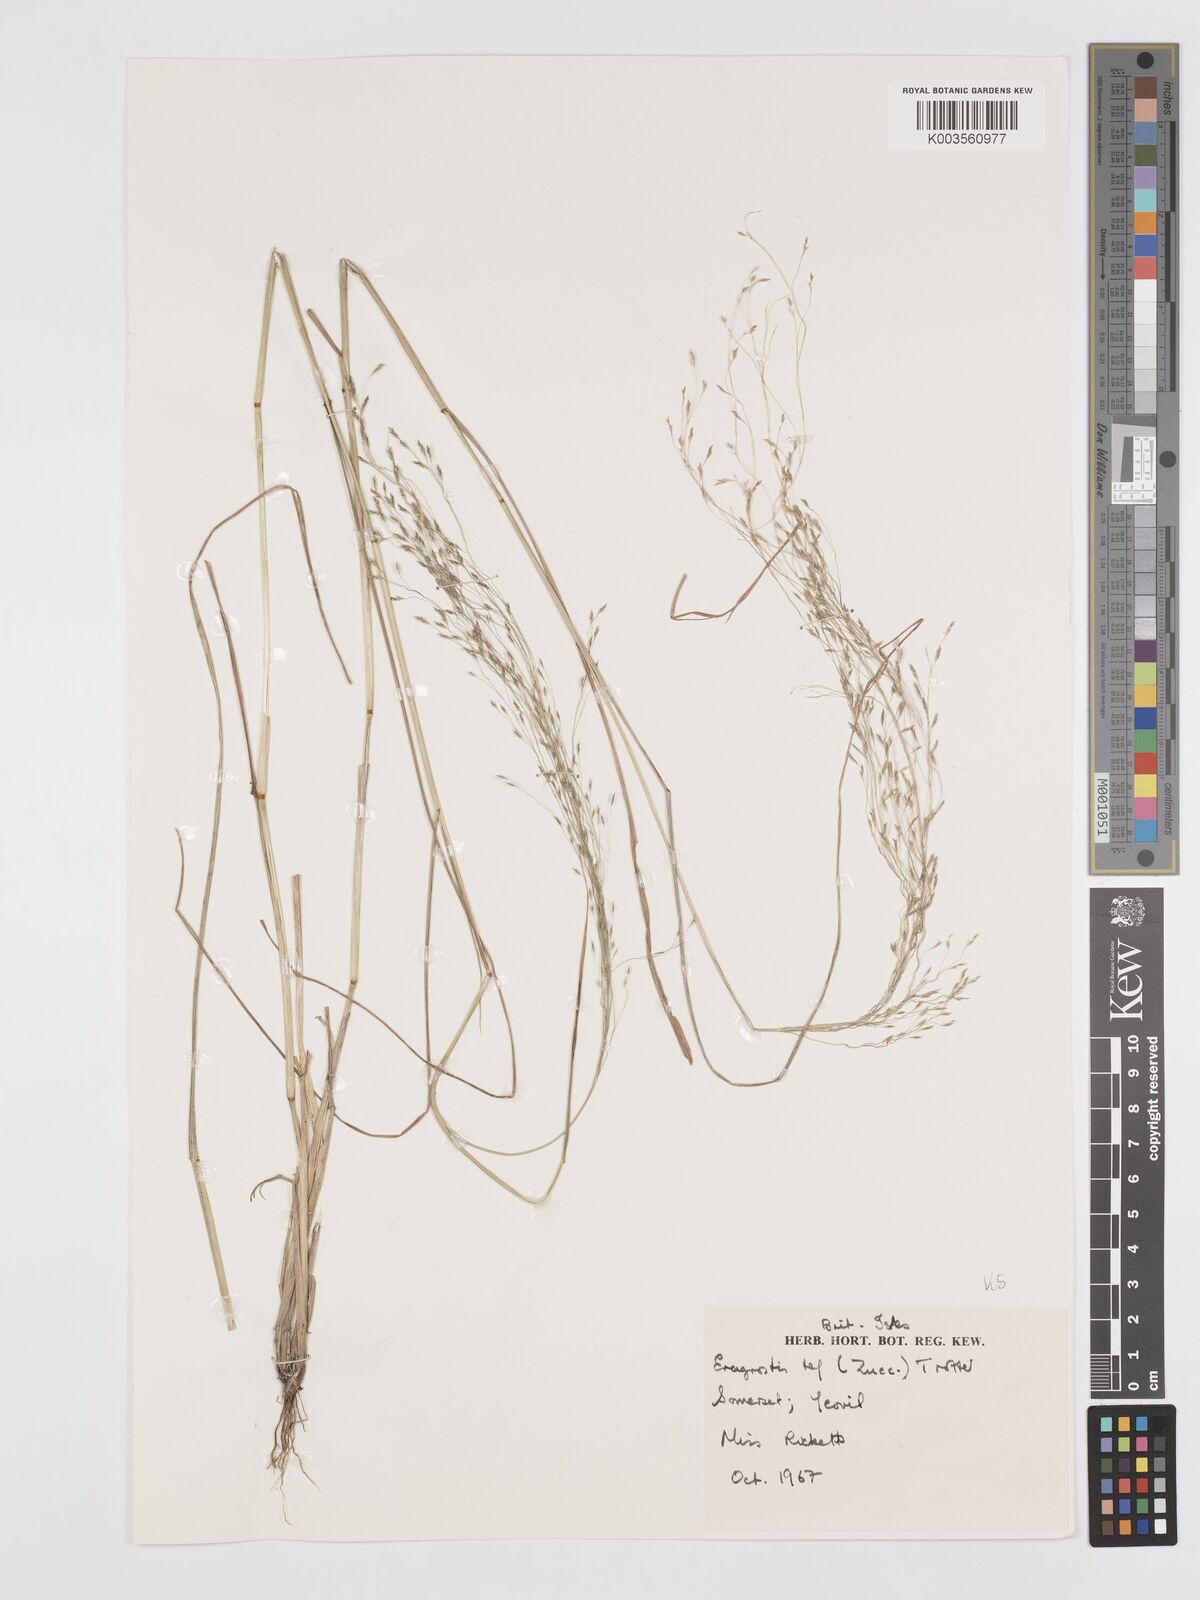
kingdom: Plantae
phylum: Tracheophyta
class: Liliopsida
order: Poales
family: Poaceae
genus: Eragrostis
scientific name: Eragrostis tef
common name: Teff
